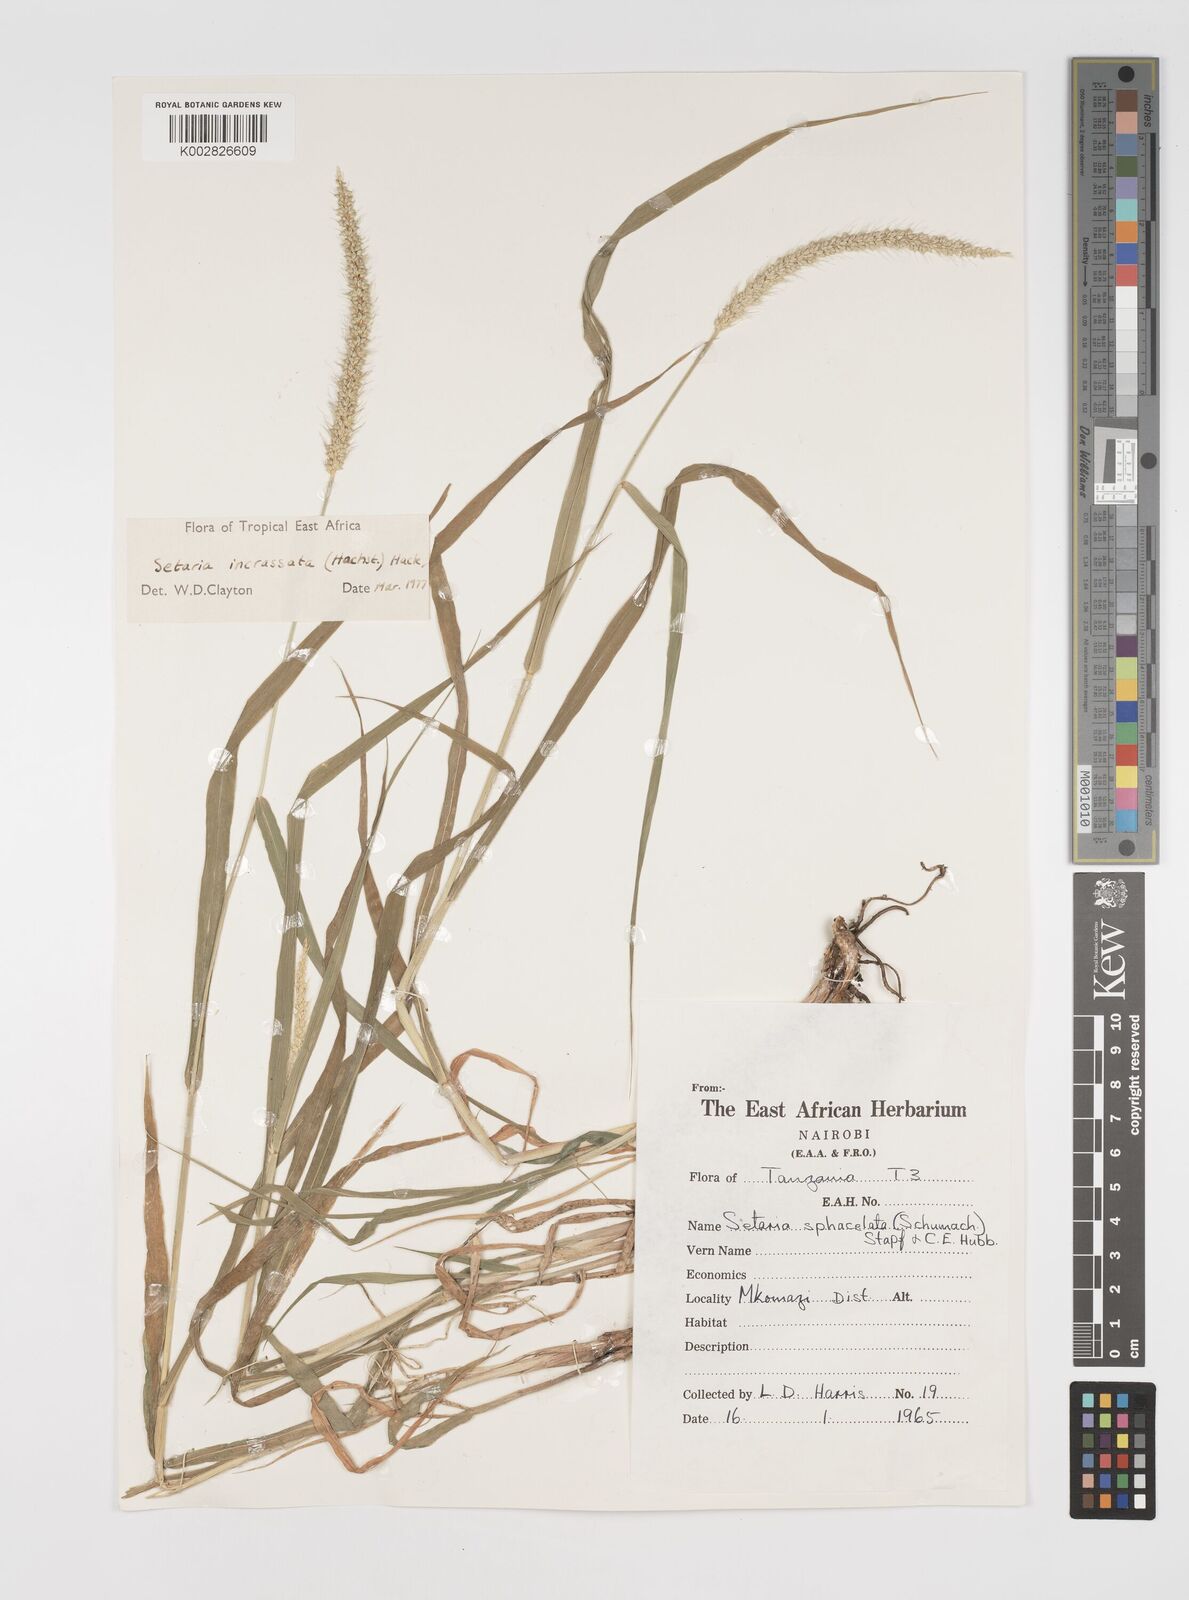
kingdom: Plantae
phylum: Tracheophyta
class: Liliopsida
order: Poales
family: Poaceae
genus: Setaria
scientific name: Setaria incrassata
